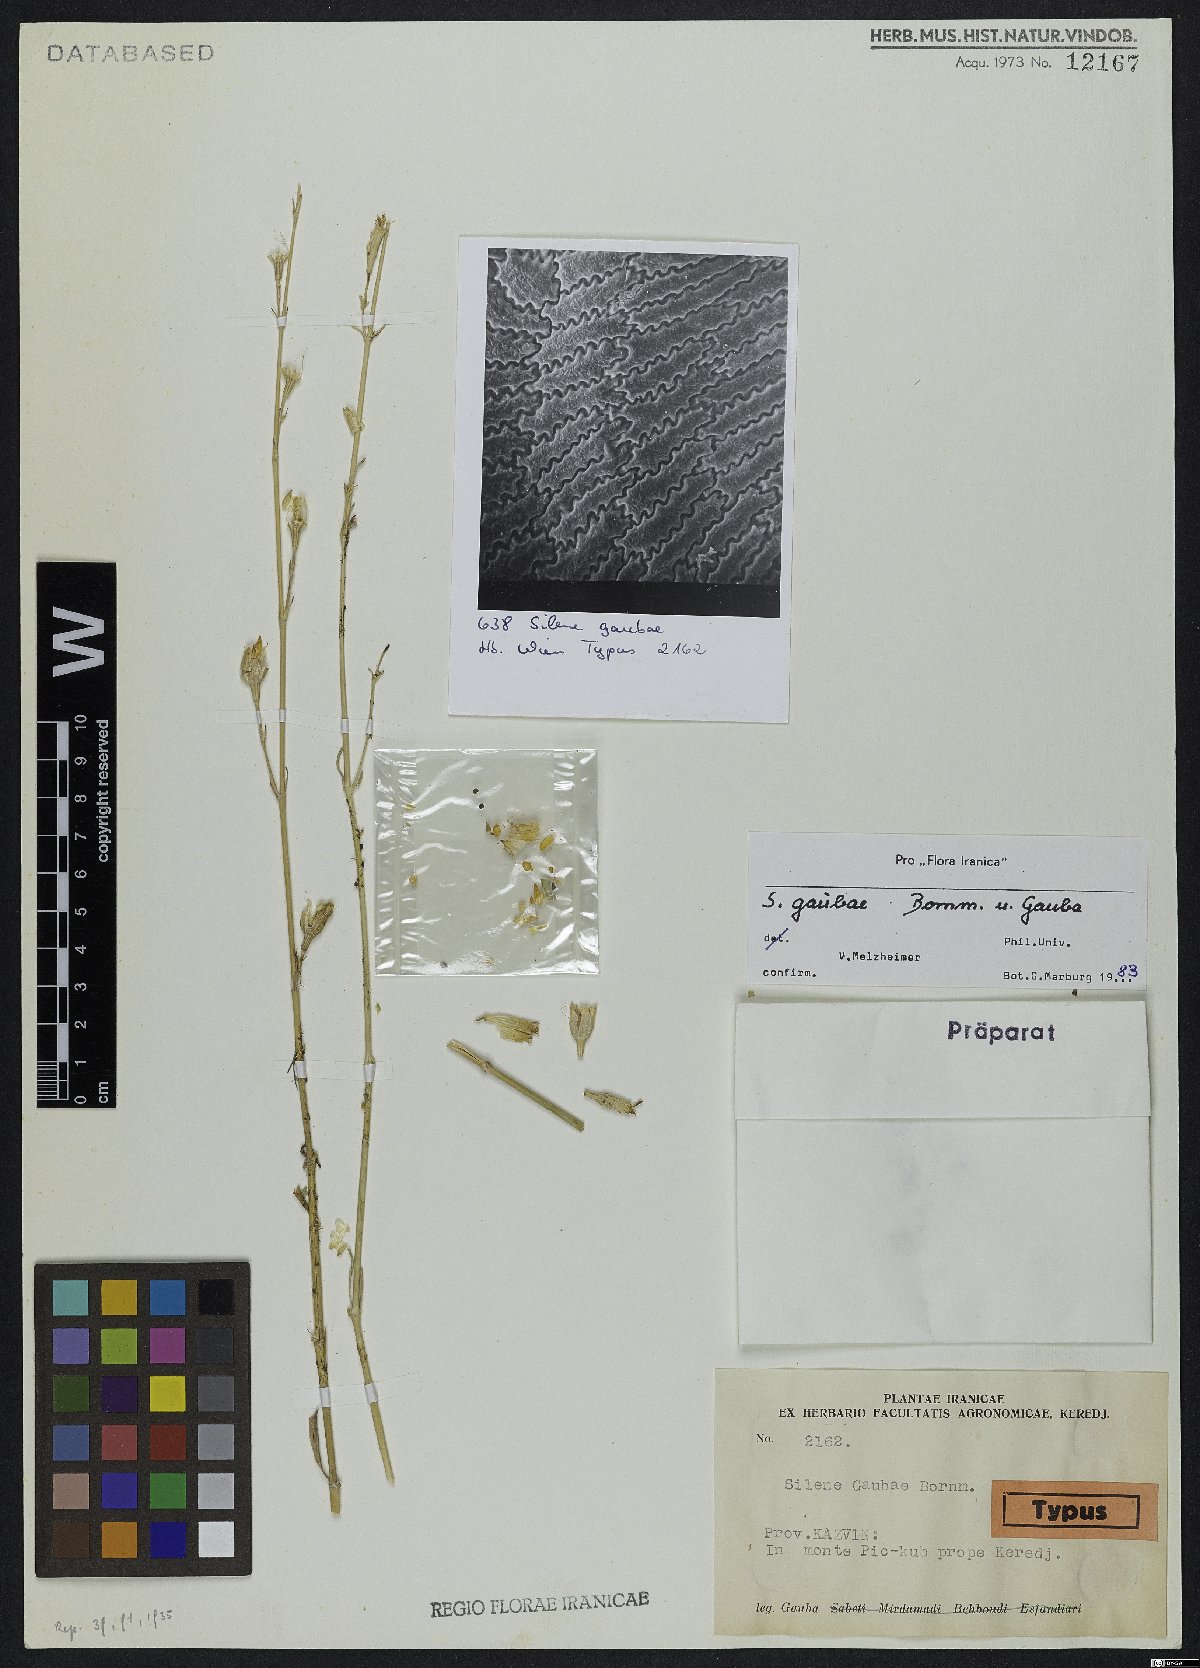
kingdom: Plantae
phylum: Tracheophyta
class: Magnoliopsida
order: Caryophyllales
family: Caryophyllaceae
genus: Silene
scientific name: Silene gaubae
